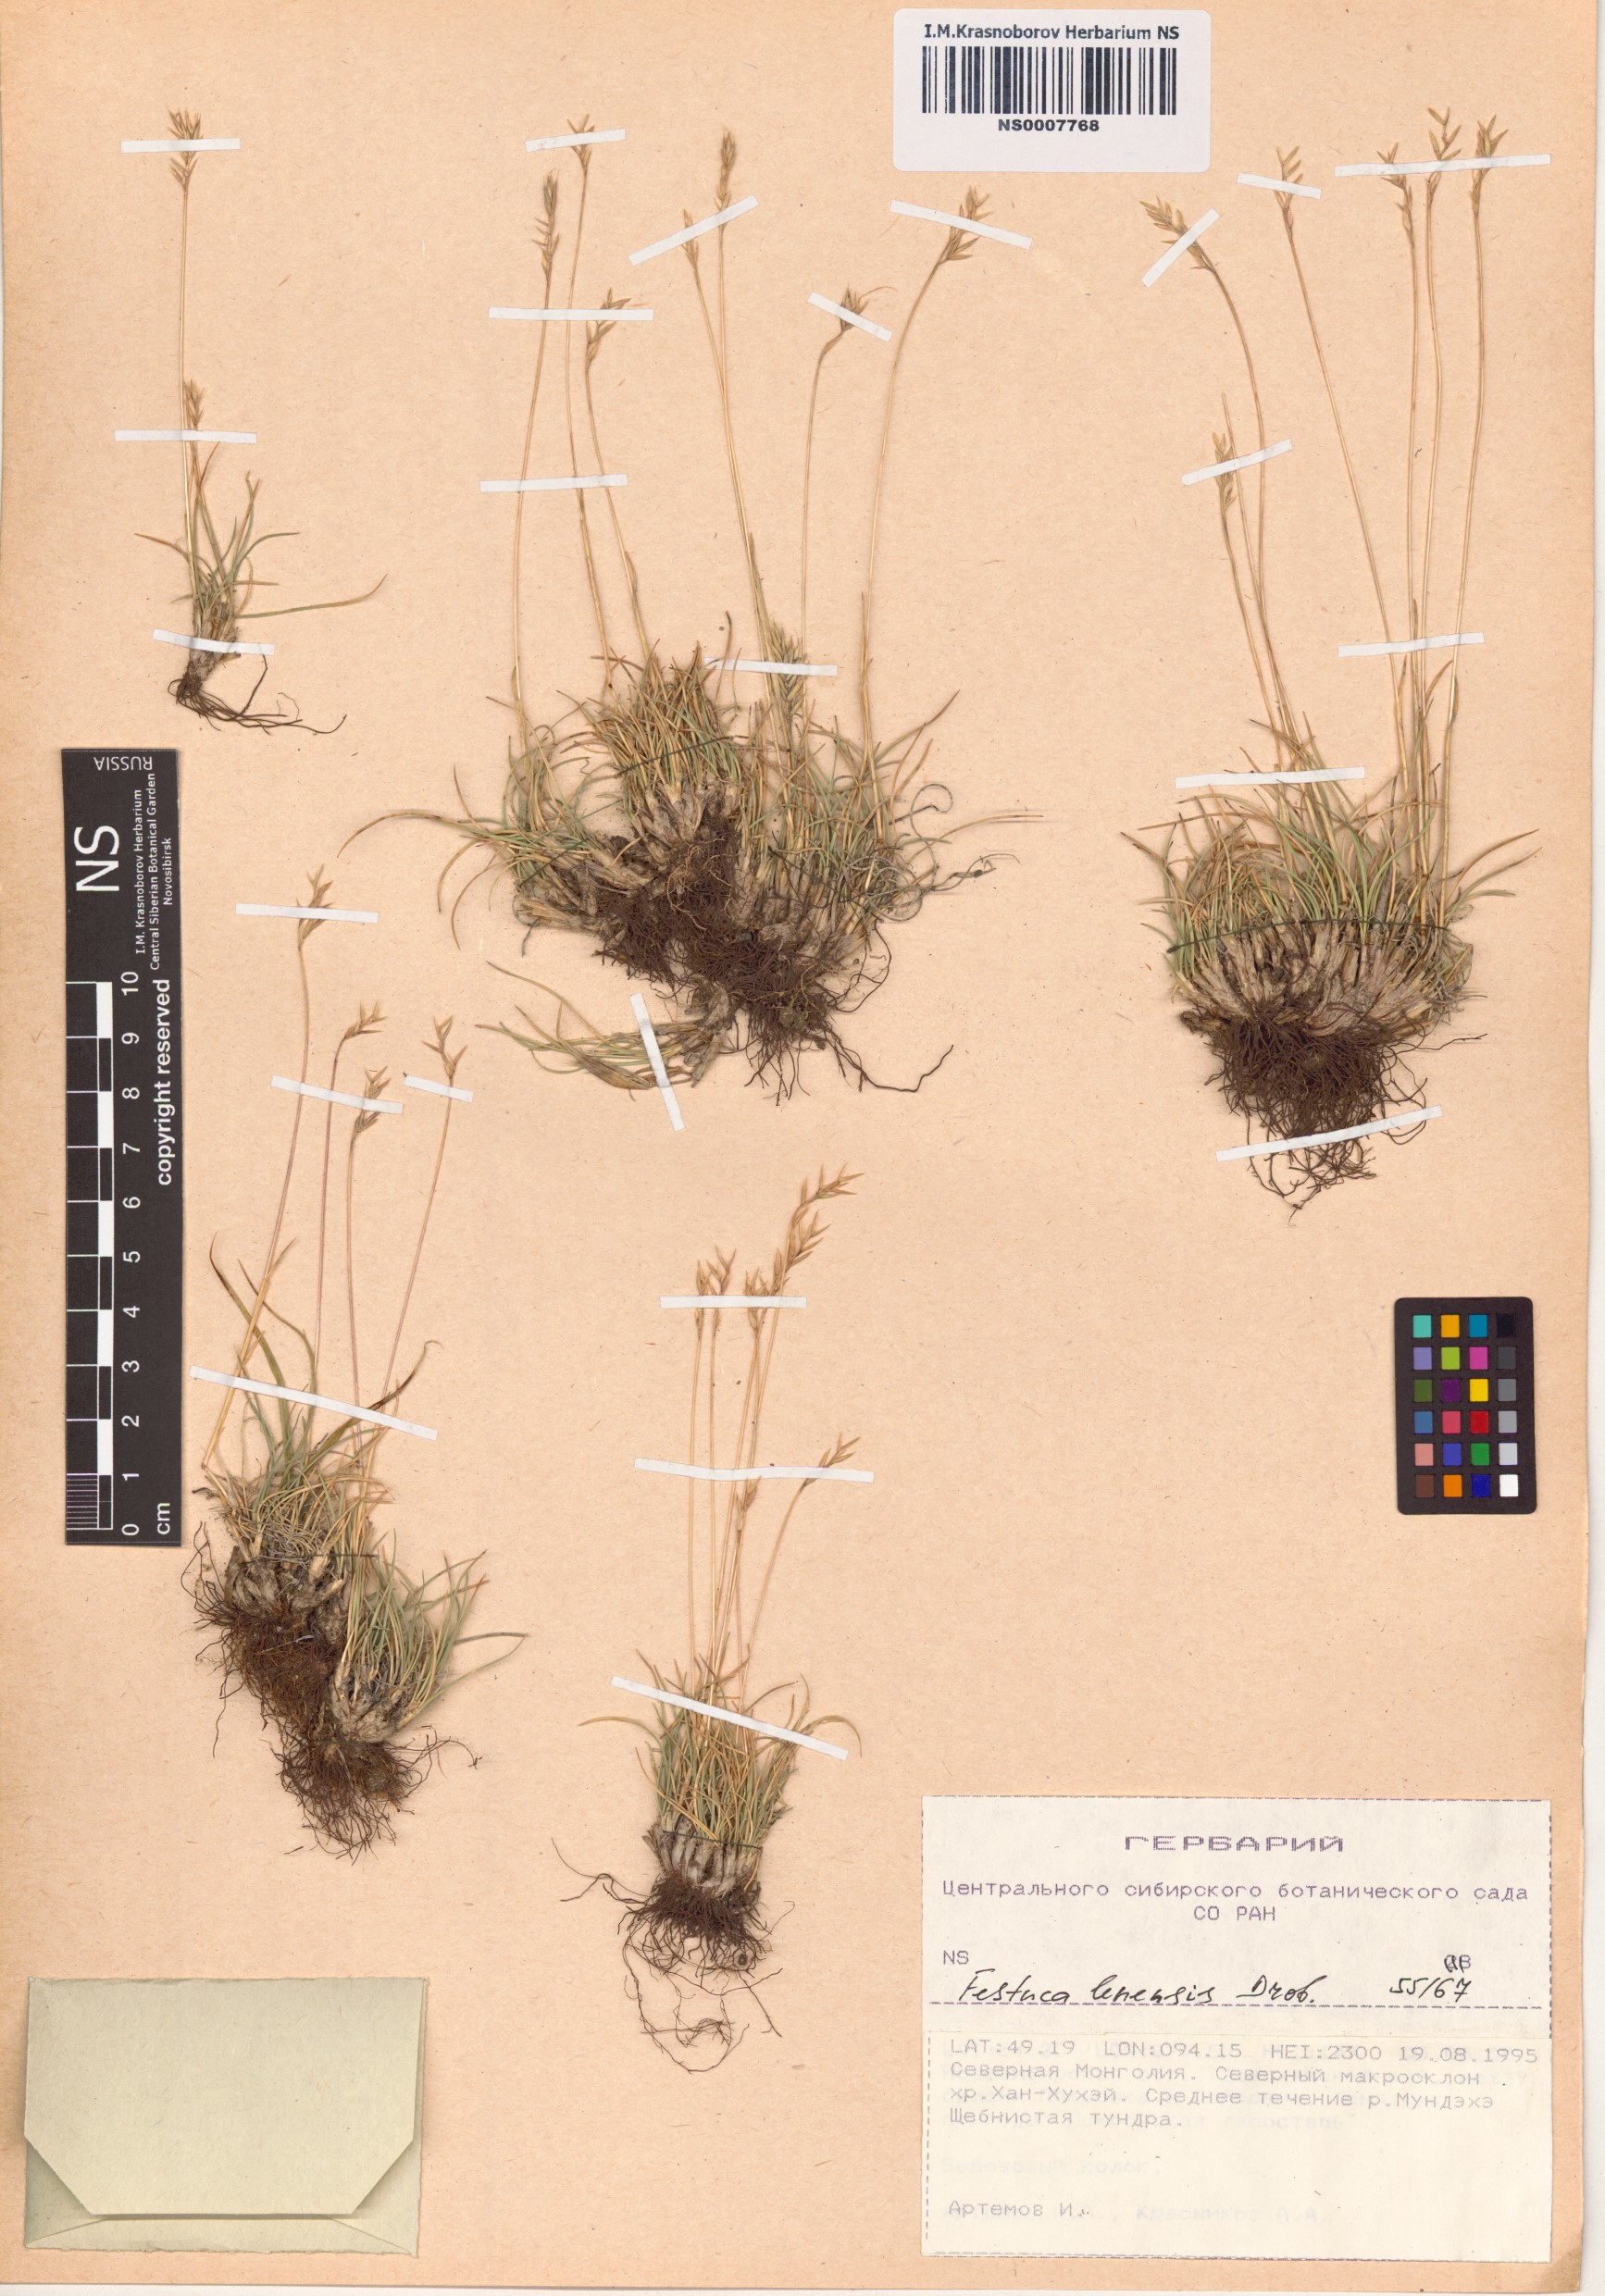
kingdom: Plantae
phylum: Tracheophyta
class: Liliopsida
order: Poales
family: Poaceae
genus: Festuca
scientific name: Festuca lenensis
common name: Lena river fescue
